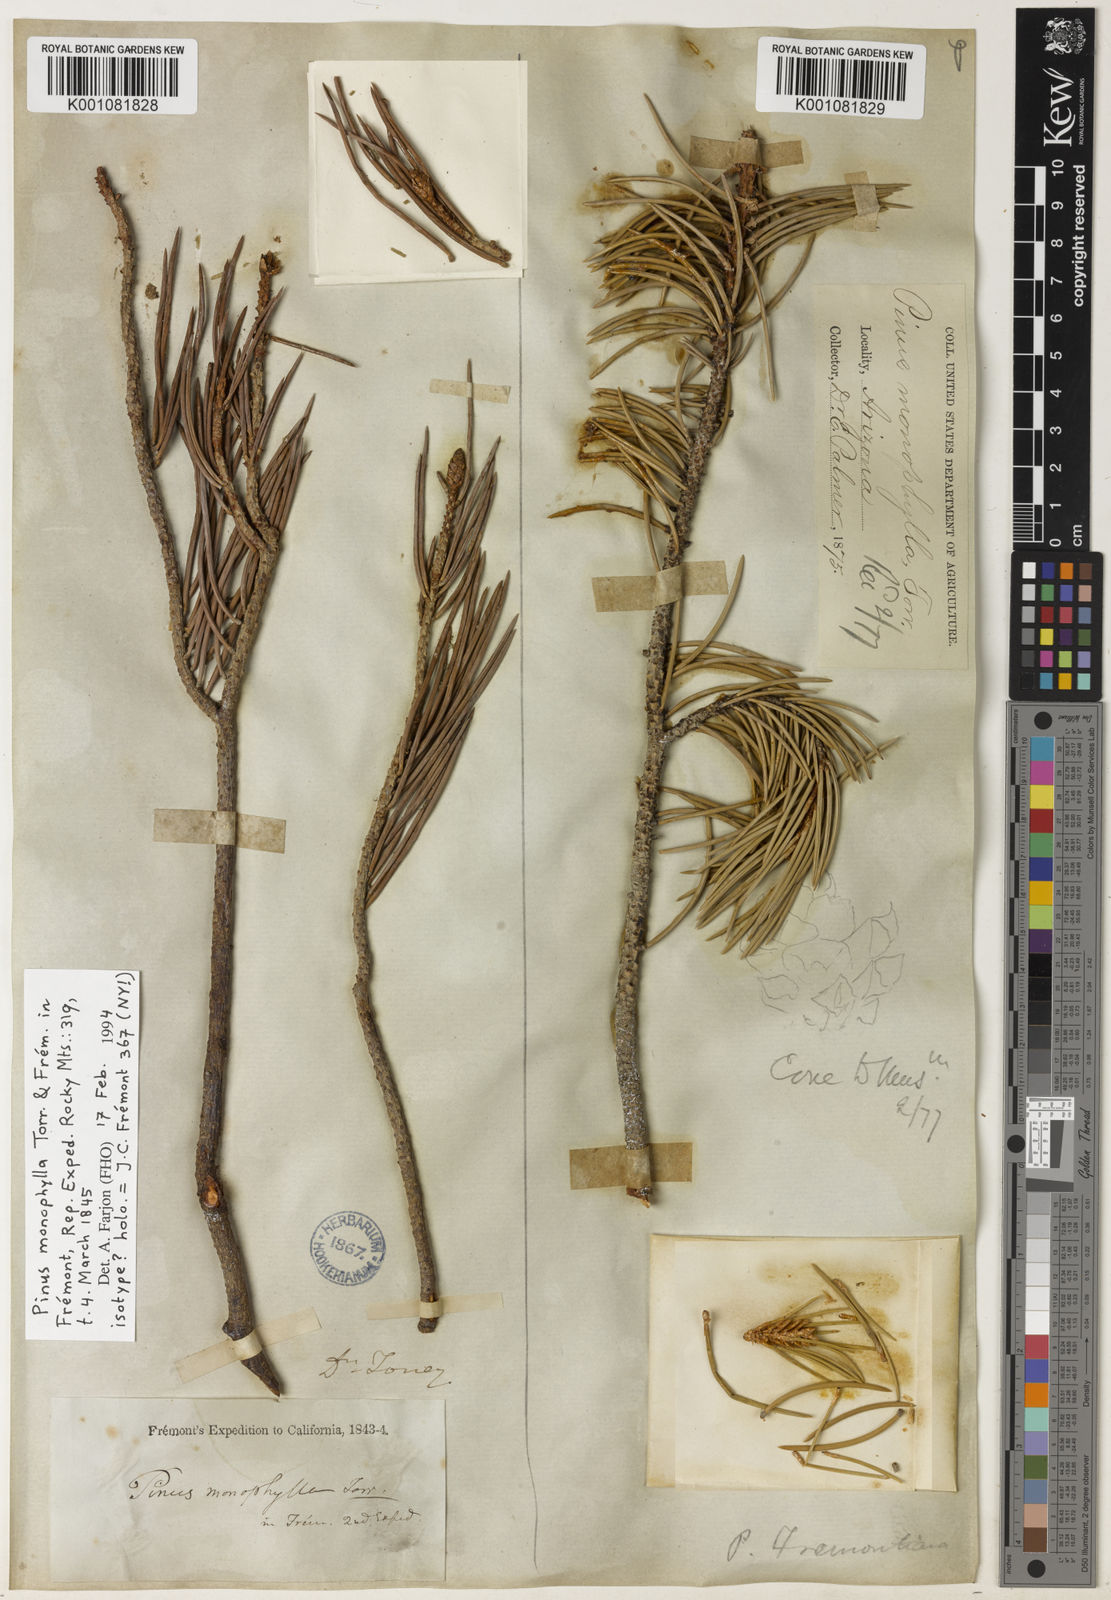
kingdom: Plantae
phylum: Tracheophyta
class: Pinopsida
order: Pinales
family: Pinaceae
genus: Pinus
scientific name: Pinus
